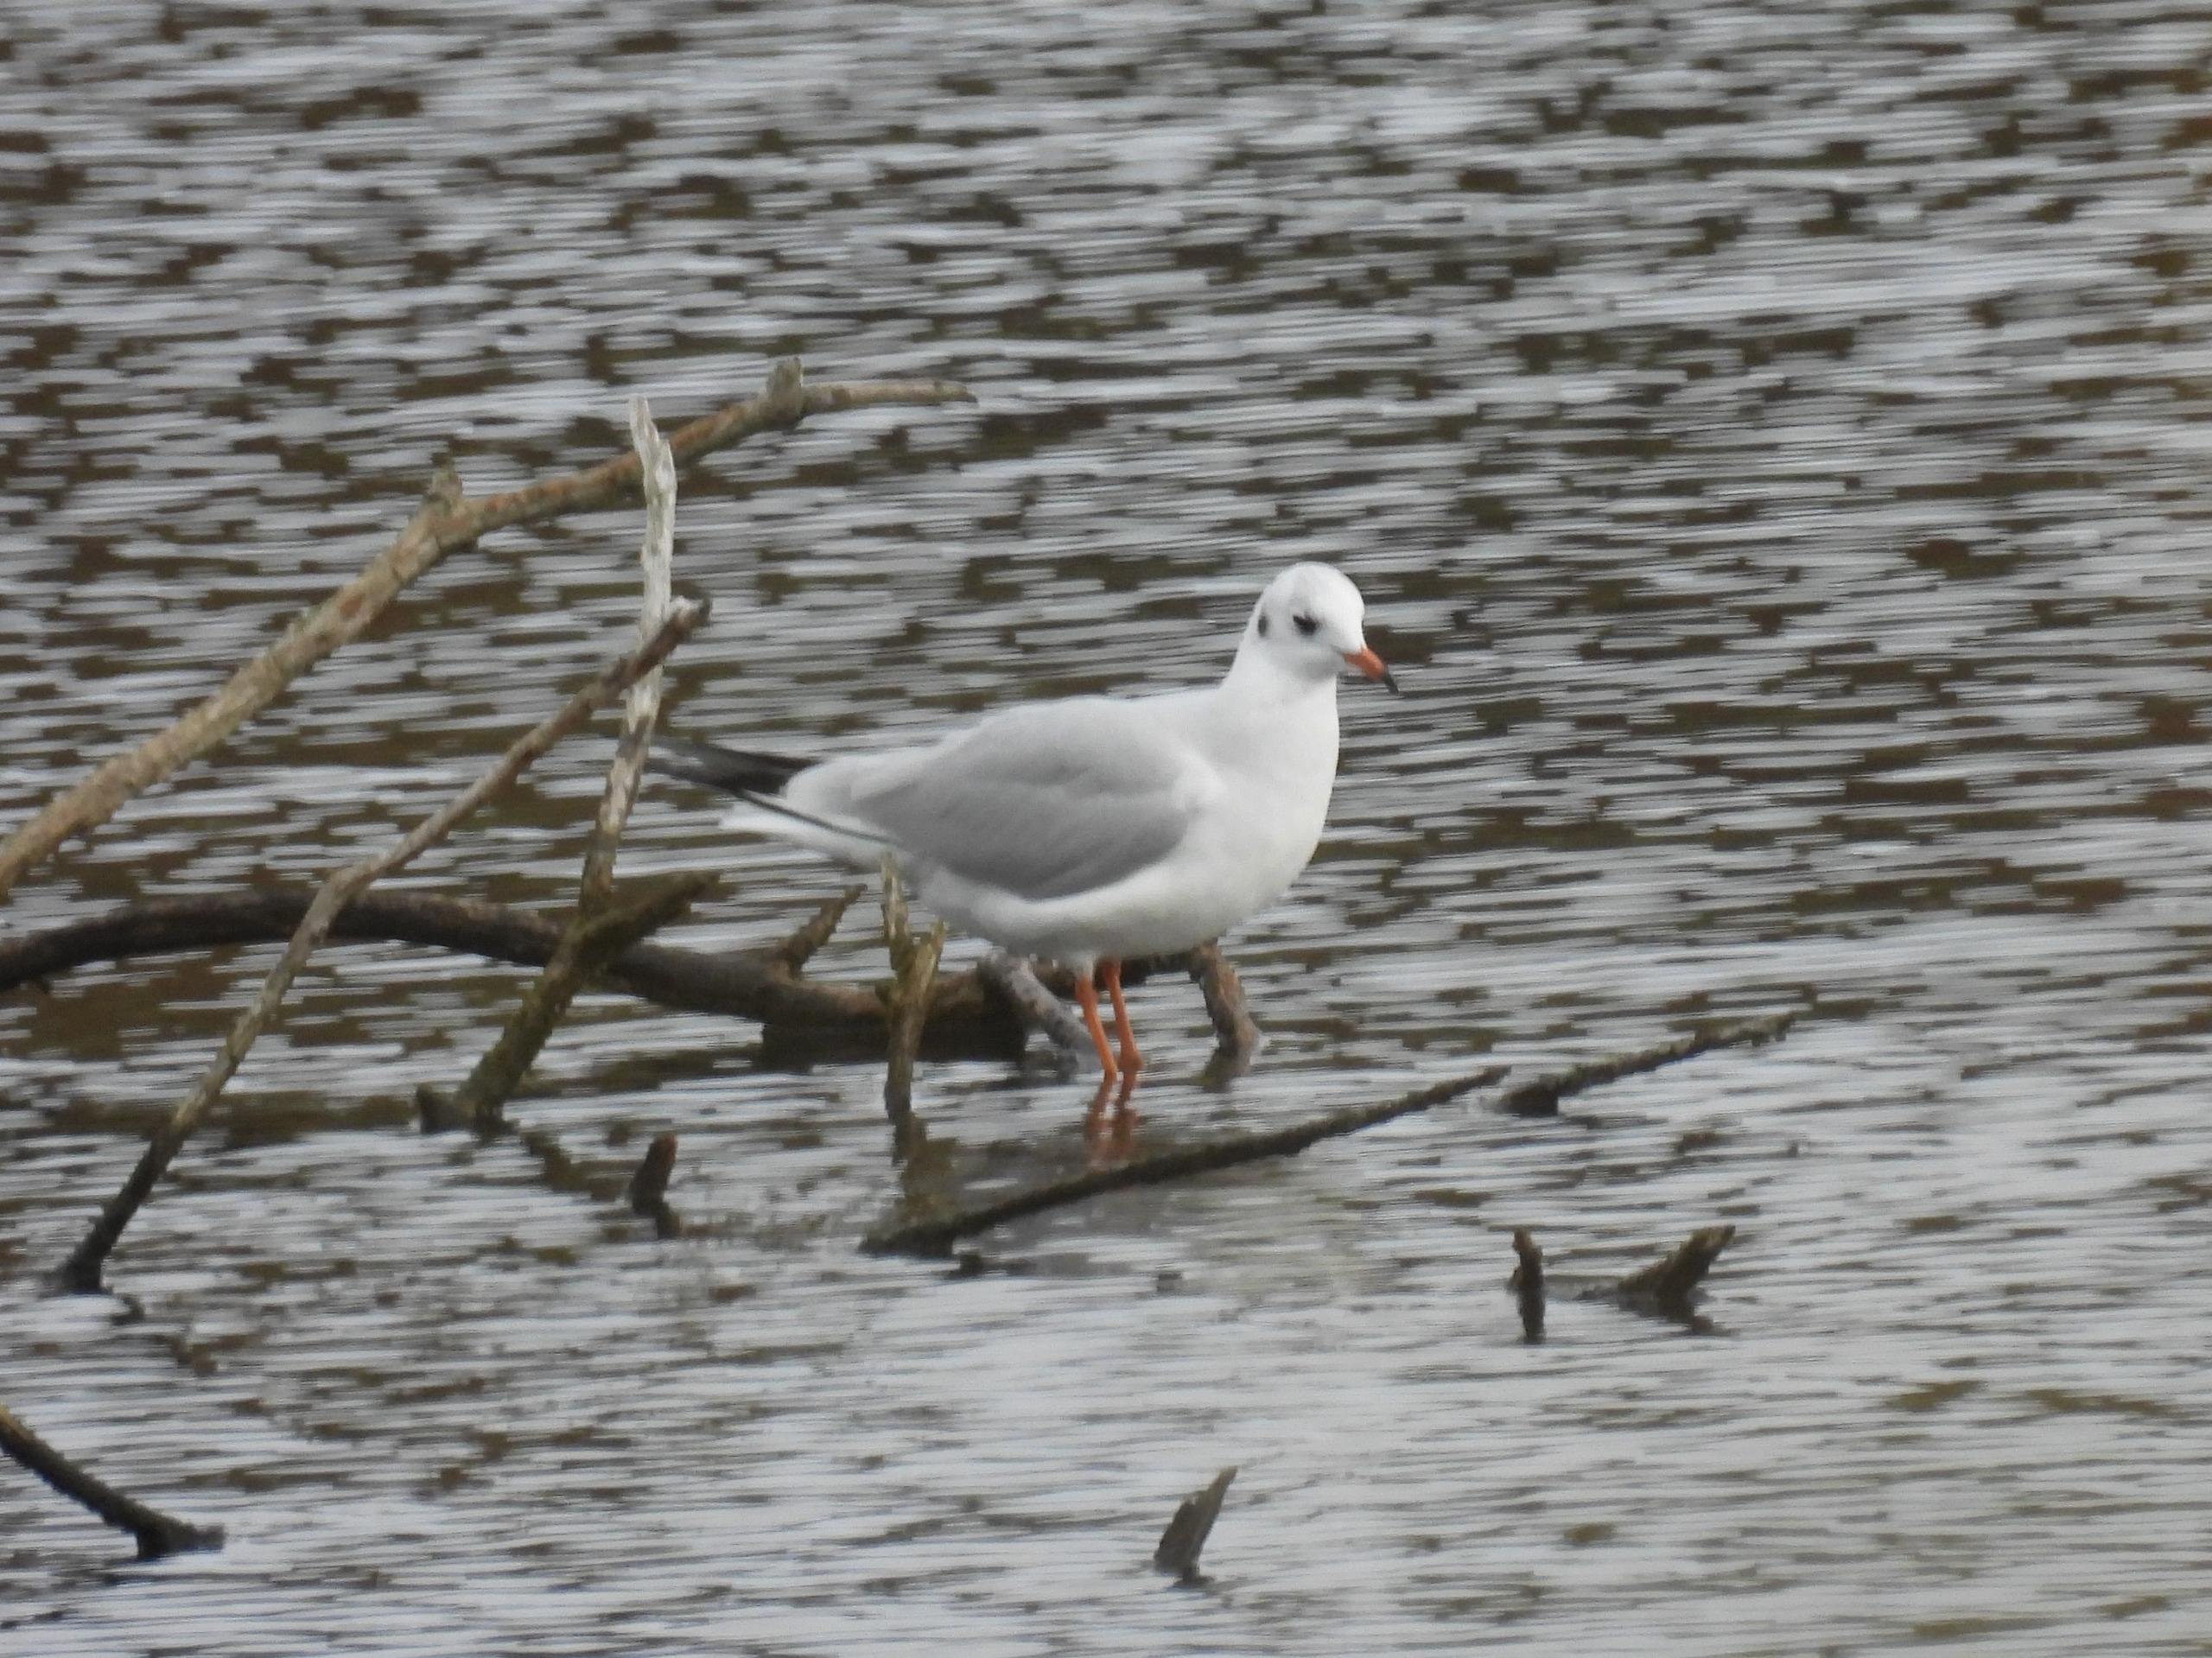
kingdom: Animalia
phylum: Chordata
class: Aves
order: Charadriiformes
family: Laridae
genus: Chroicocephalus
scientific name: Chroicocephalus ridibundus
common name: Hættemåge
